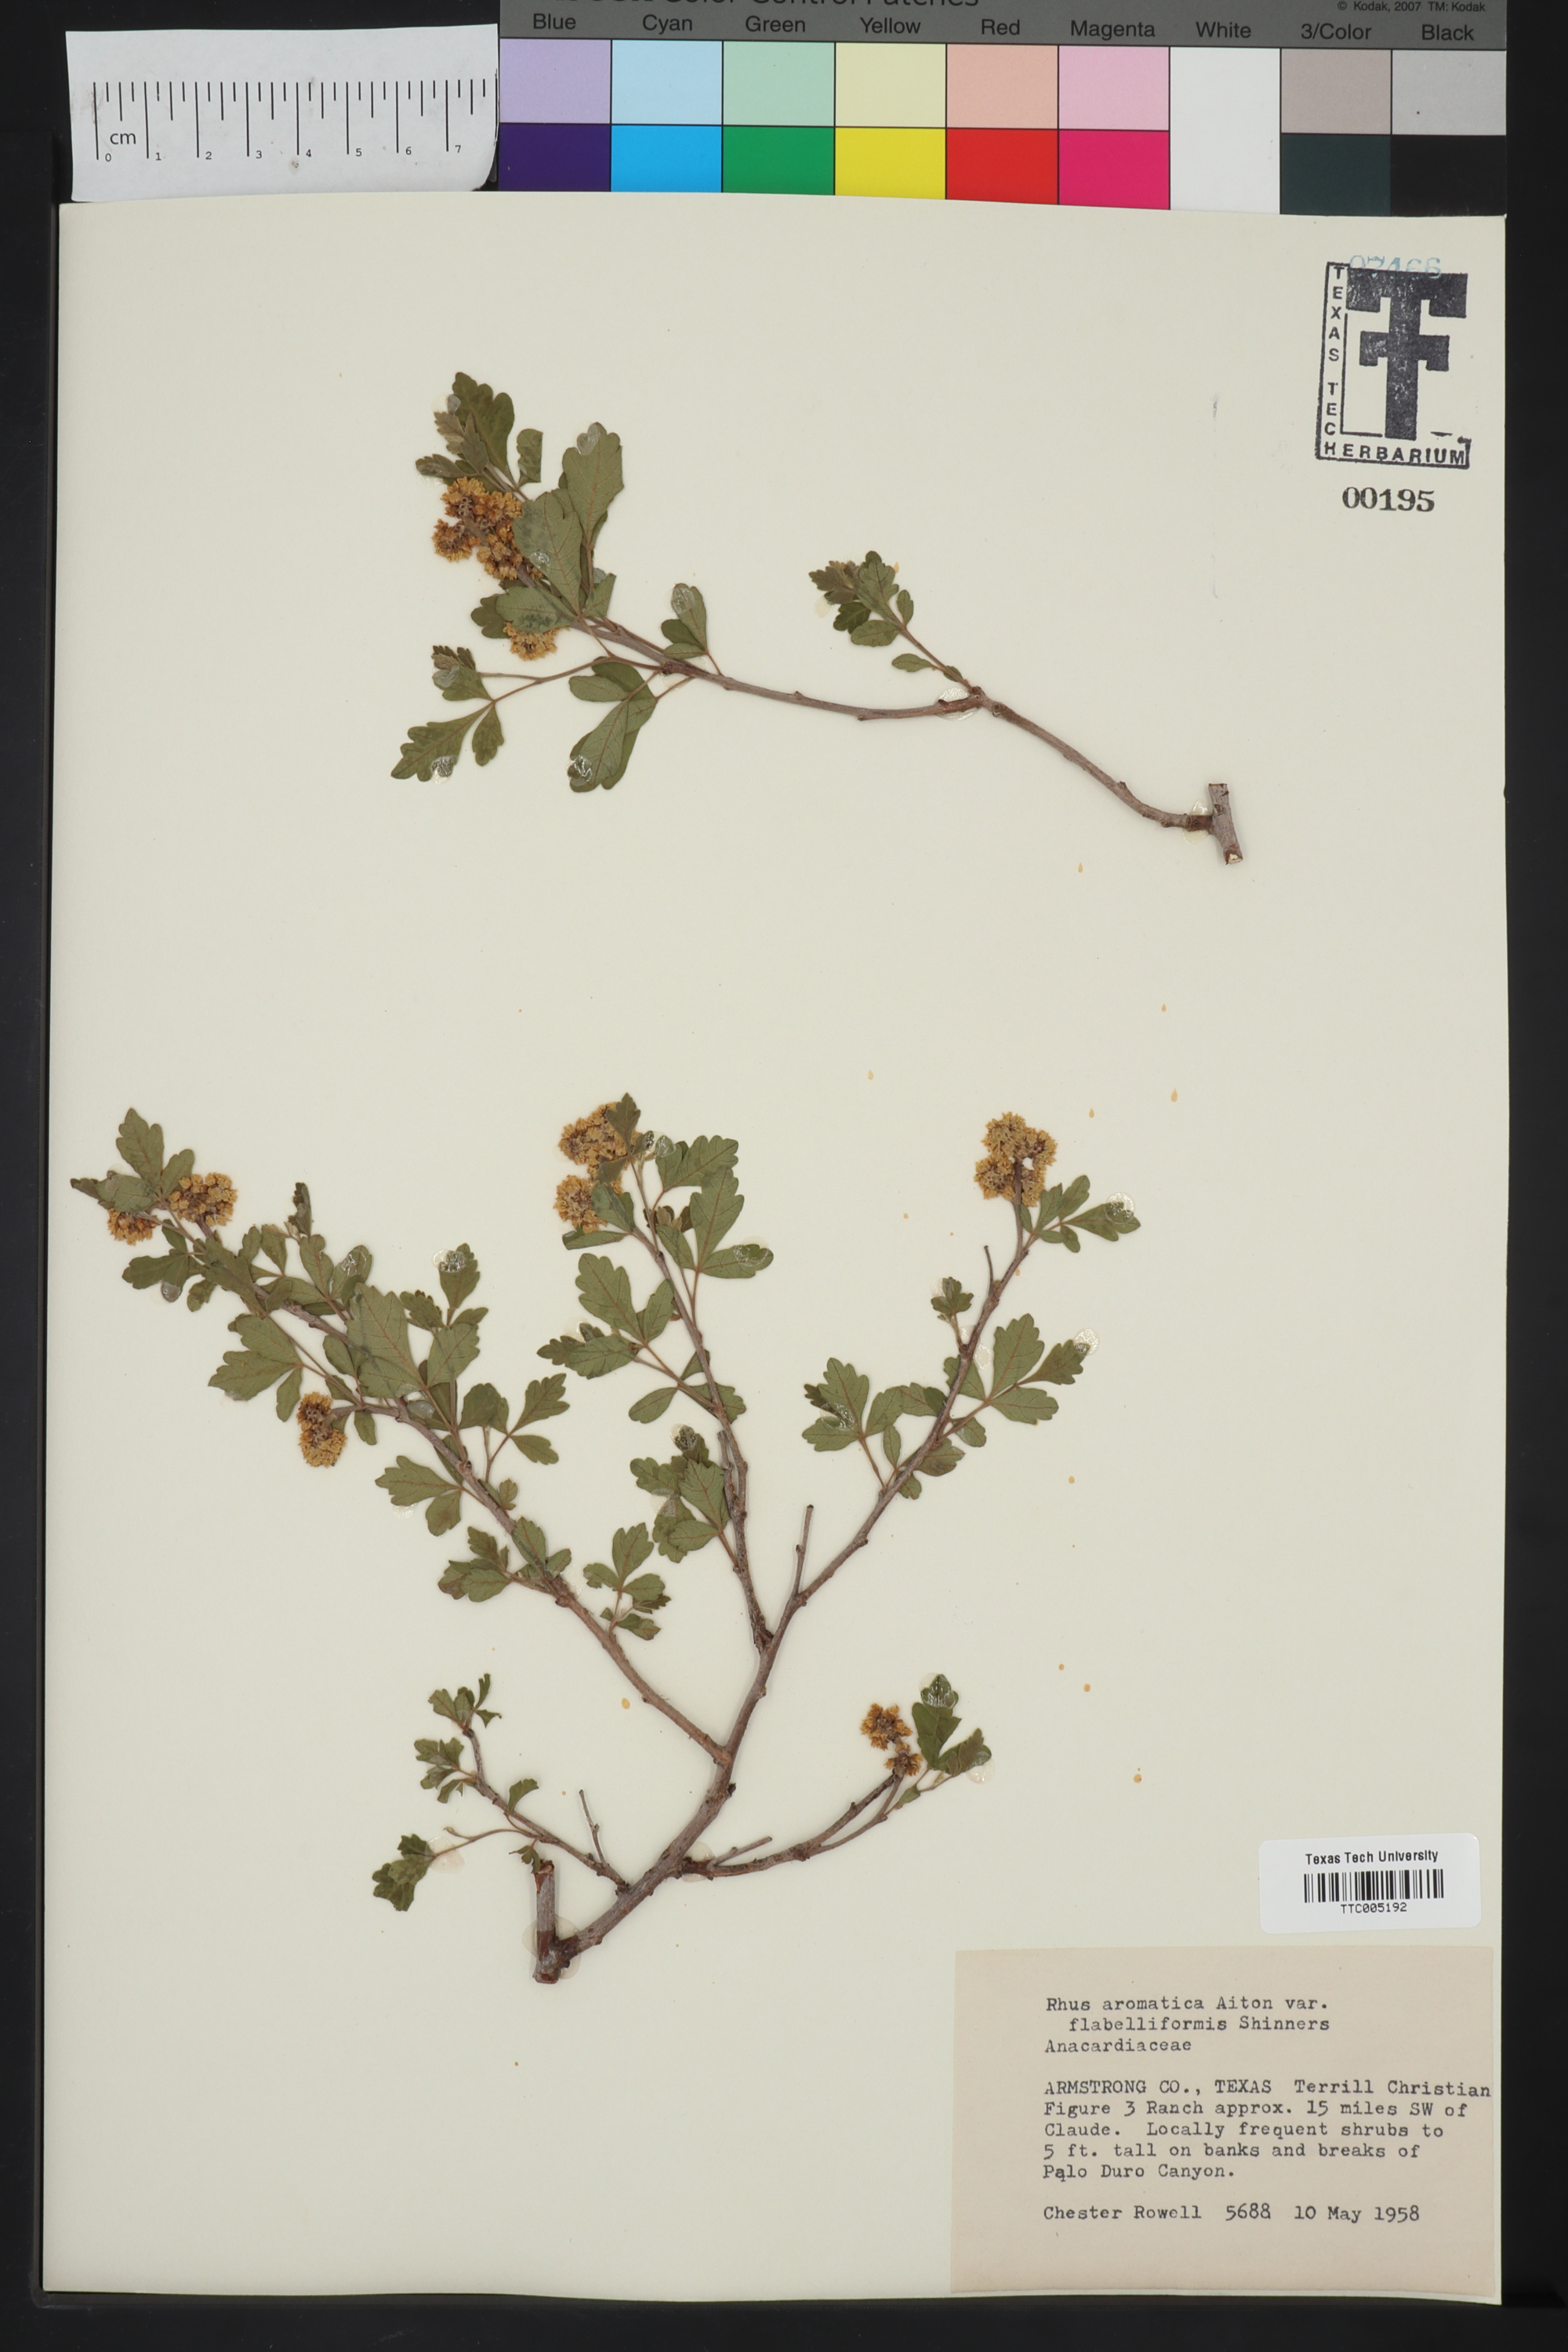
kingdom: Plantae
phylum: Tracheophyta
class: Magnoliopsida
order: Sapindales
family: Anacardiaceae
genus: Rhus
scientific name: Rhus trilobata
